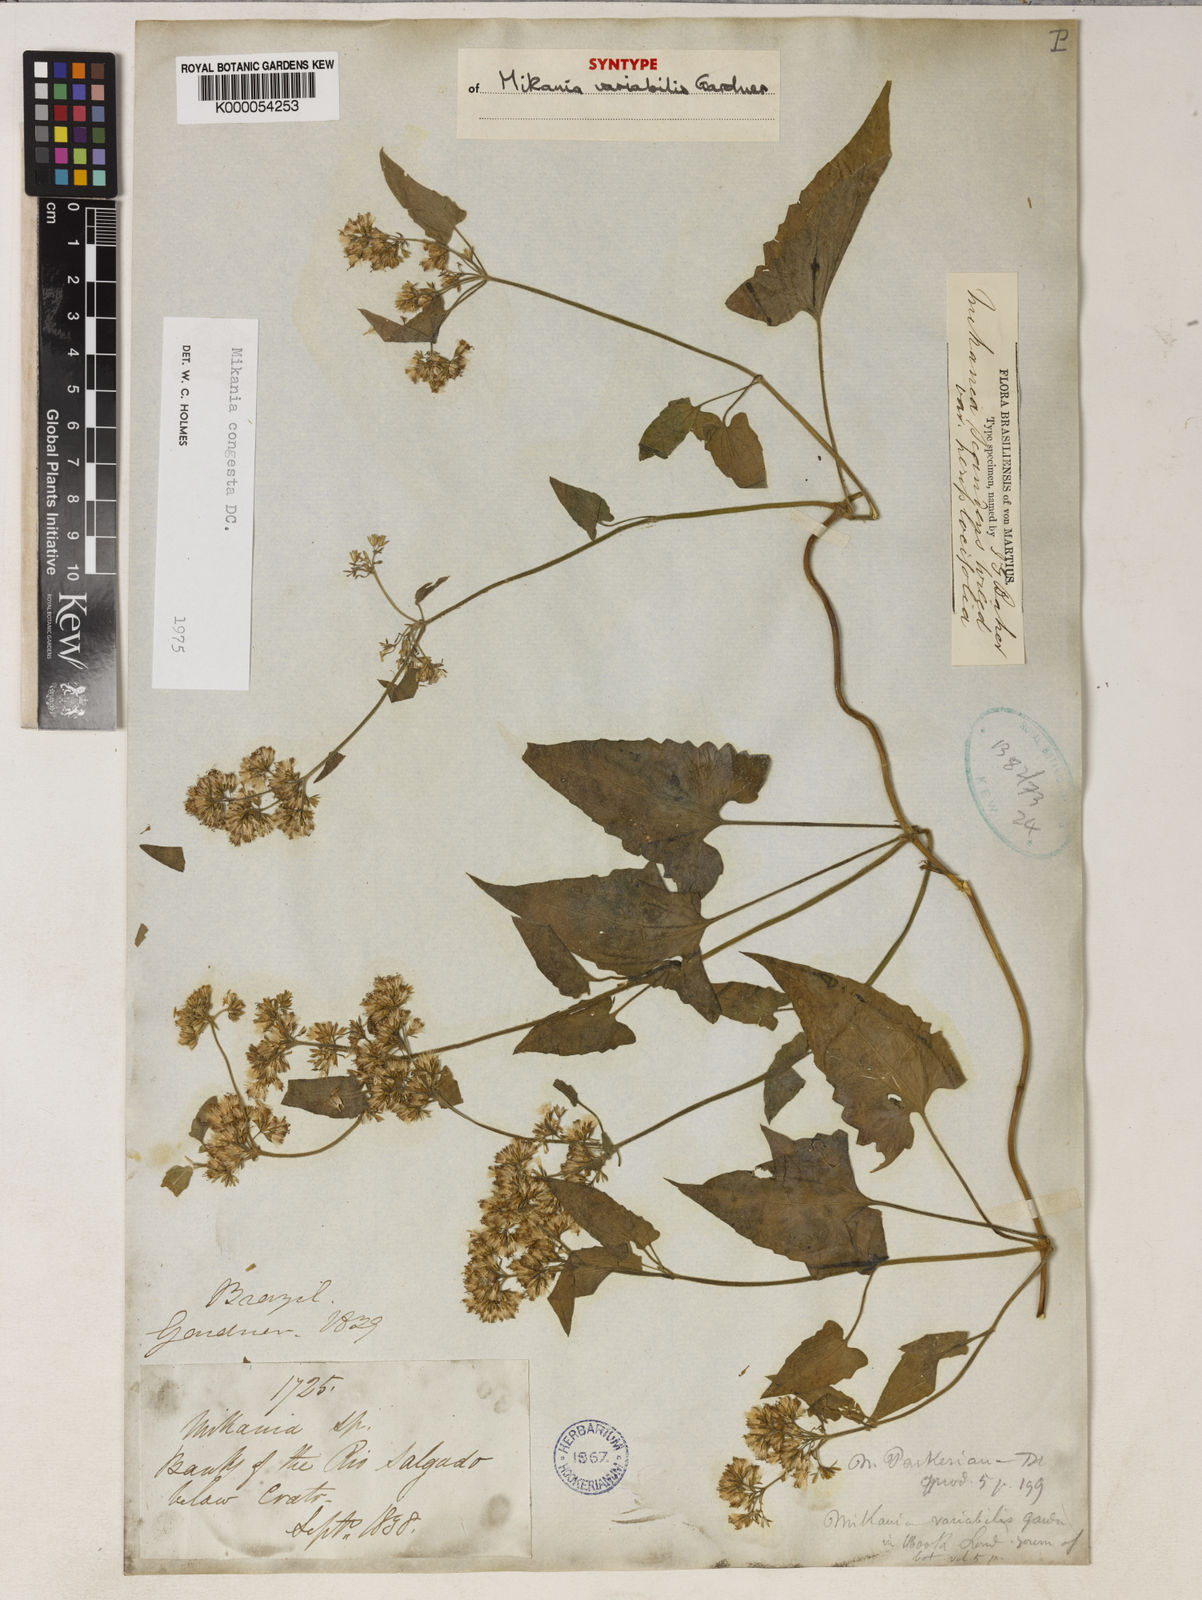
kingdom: Plantae
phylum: Tracheophyta
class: Magnoliopsida
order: Asterales
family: Asteraceae
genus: Mikania
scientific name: Mikania congesta
